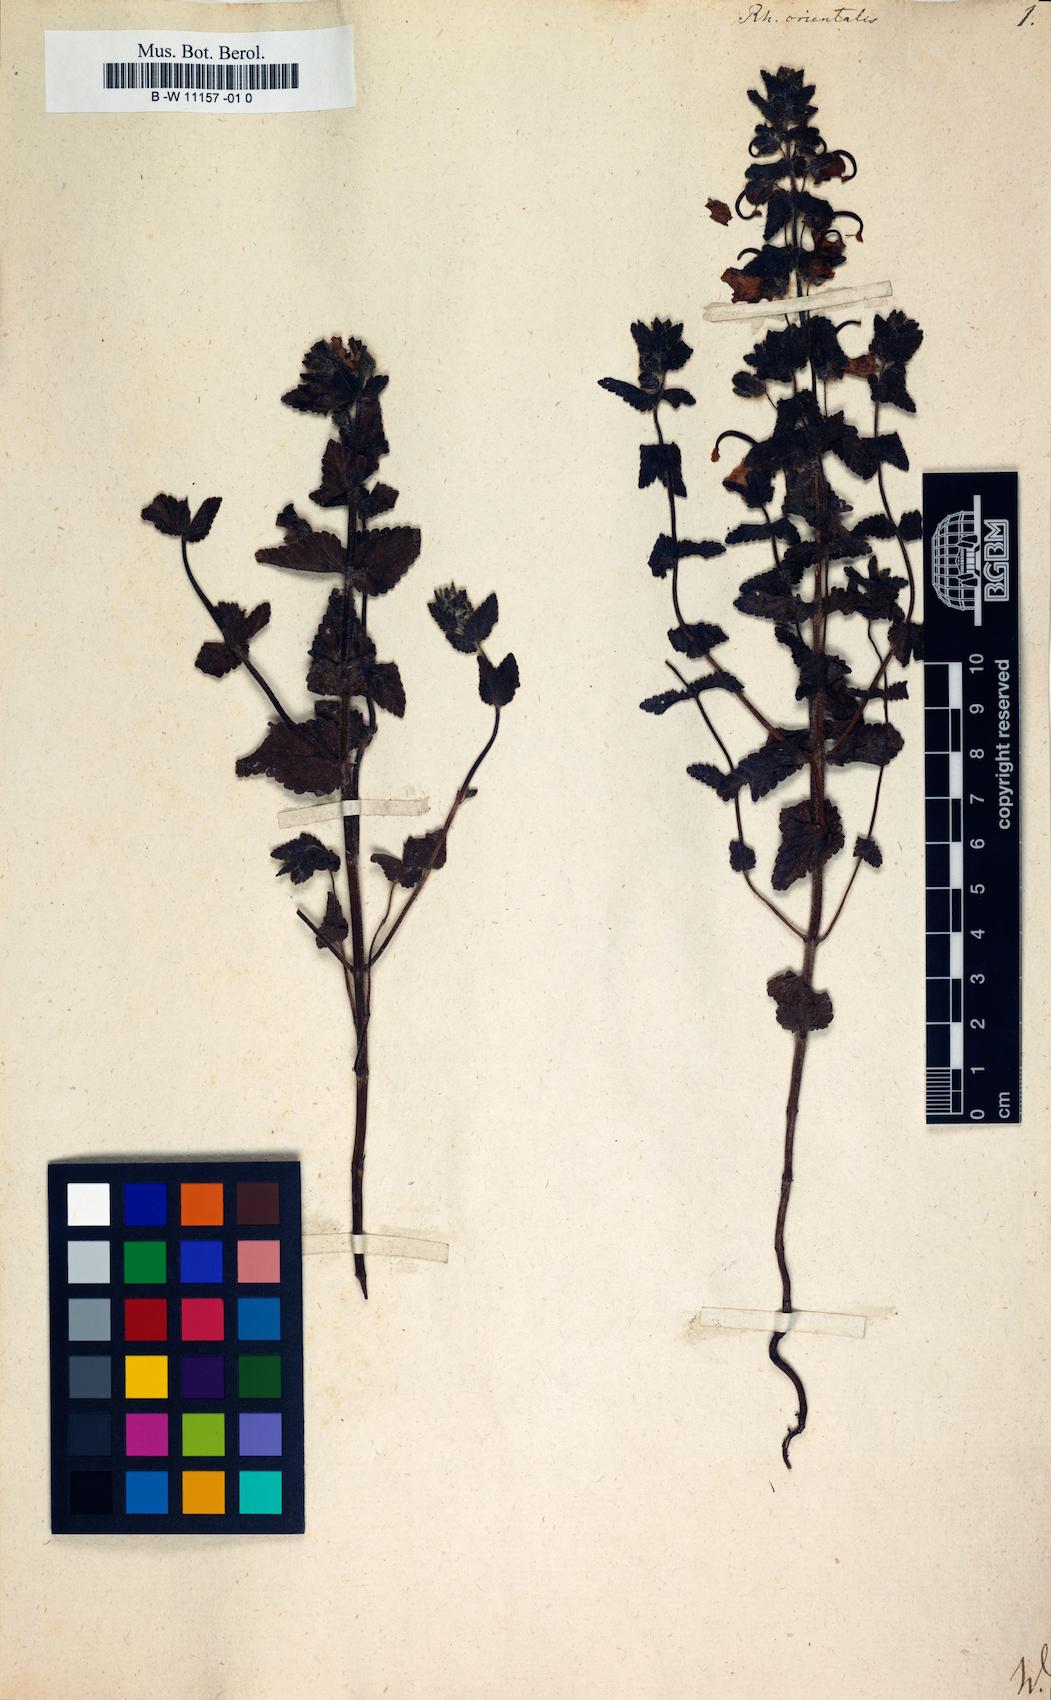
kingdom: Plantae
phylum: Tracheophyta
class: Magnoliopsida
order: Lamiales
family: Orobanchaceae
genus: Rhynchocorys
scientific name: Rhynchocorys
